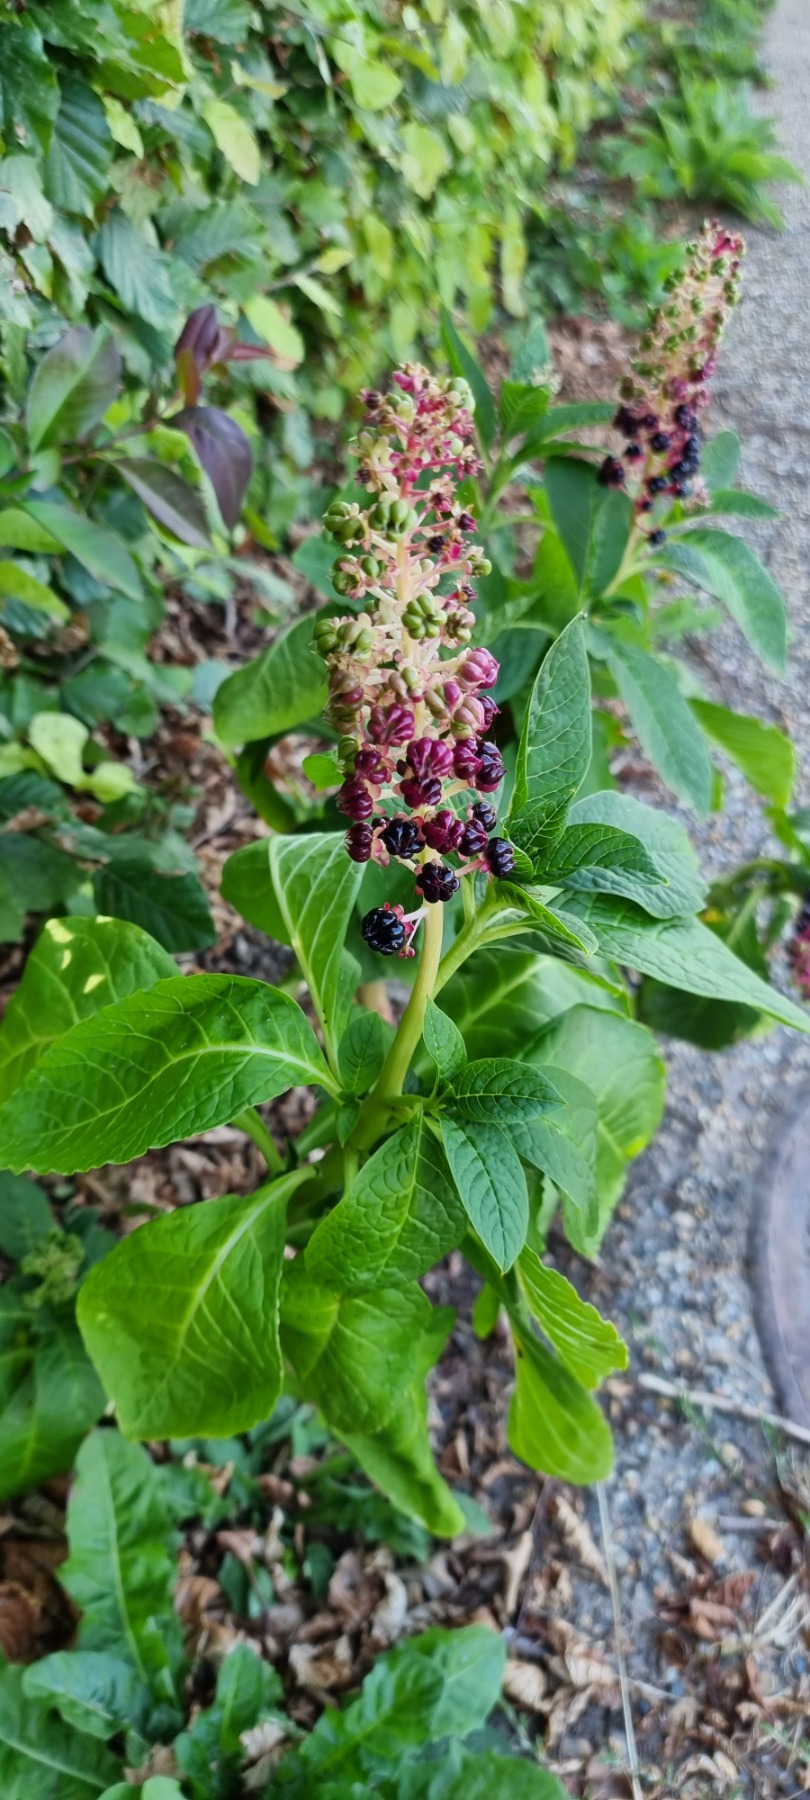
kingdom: Plantae
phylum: Tracheophyta
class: Magnoliopsida
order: Caryophyllales
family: Phytolaccaceae
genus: Phytolacca
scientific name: Phytolacca acinosa
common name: Asiatisk kermesbær
